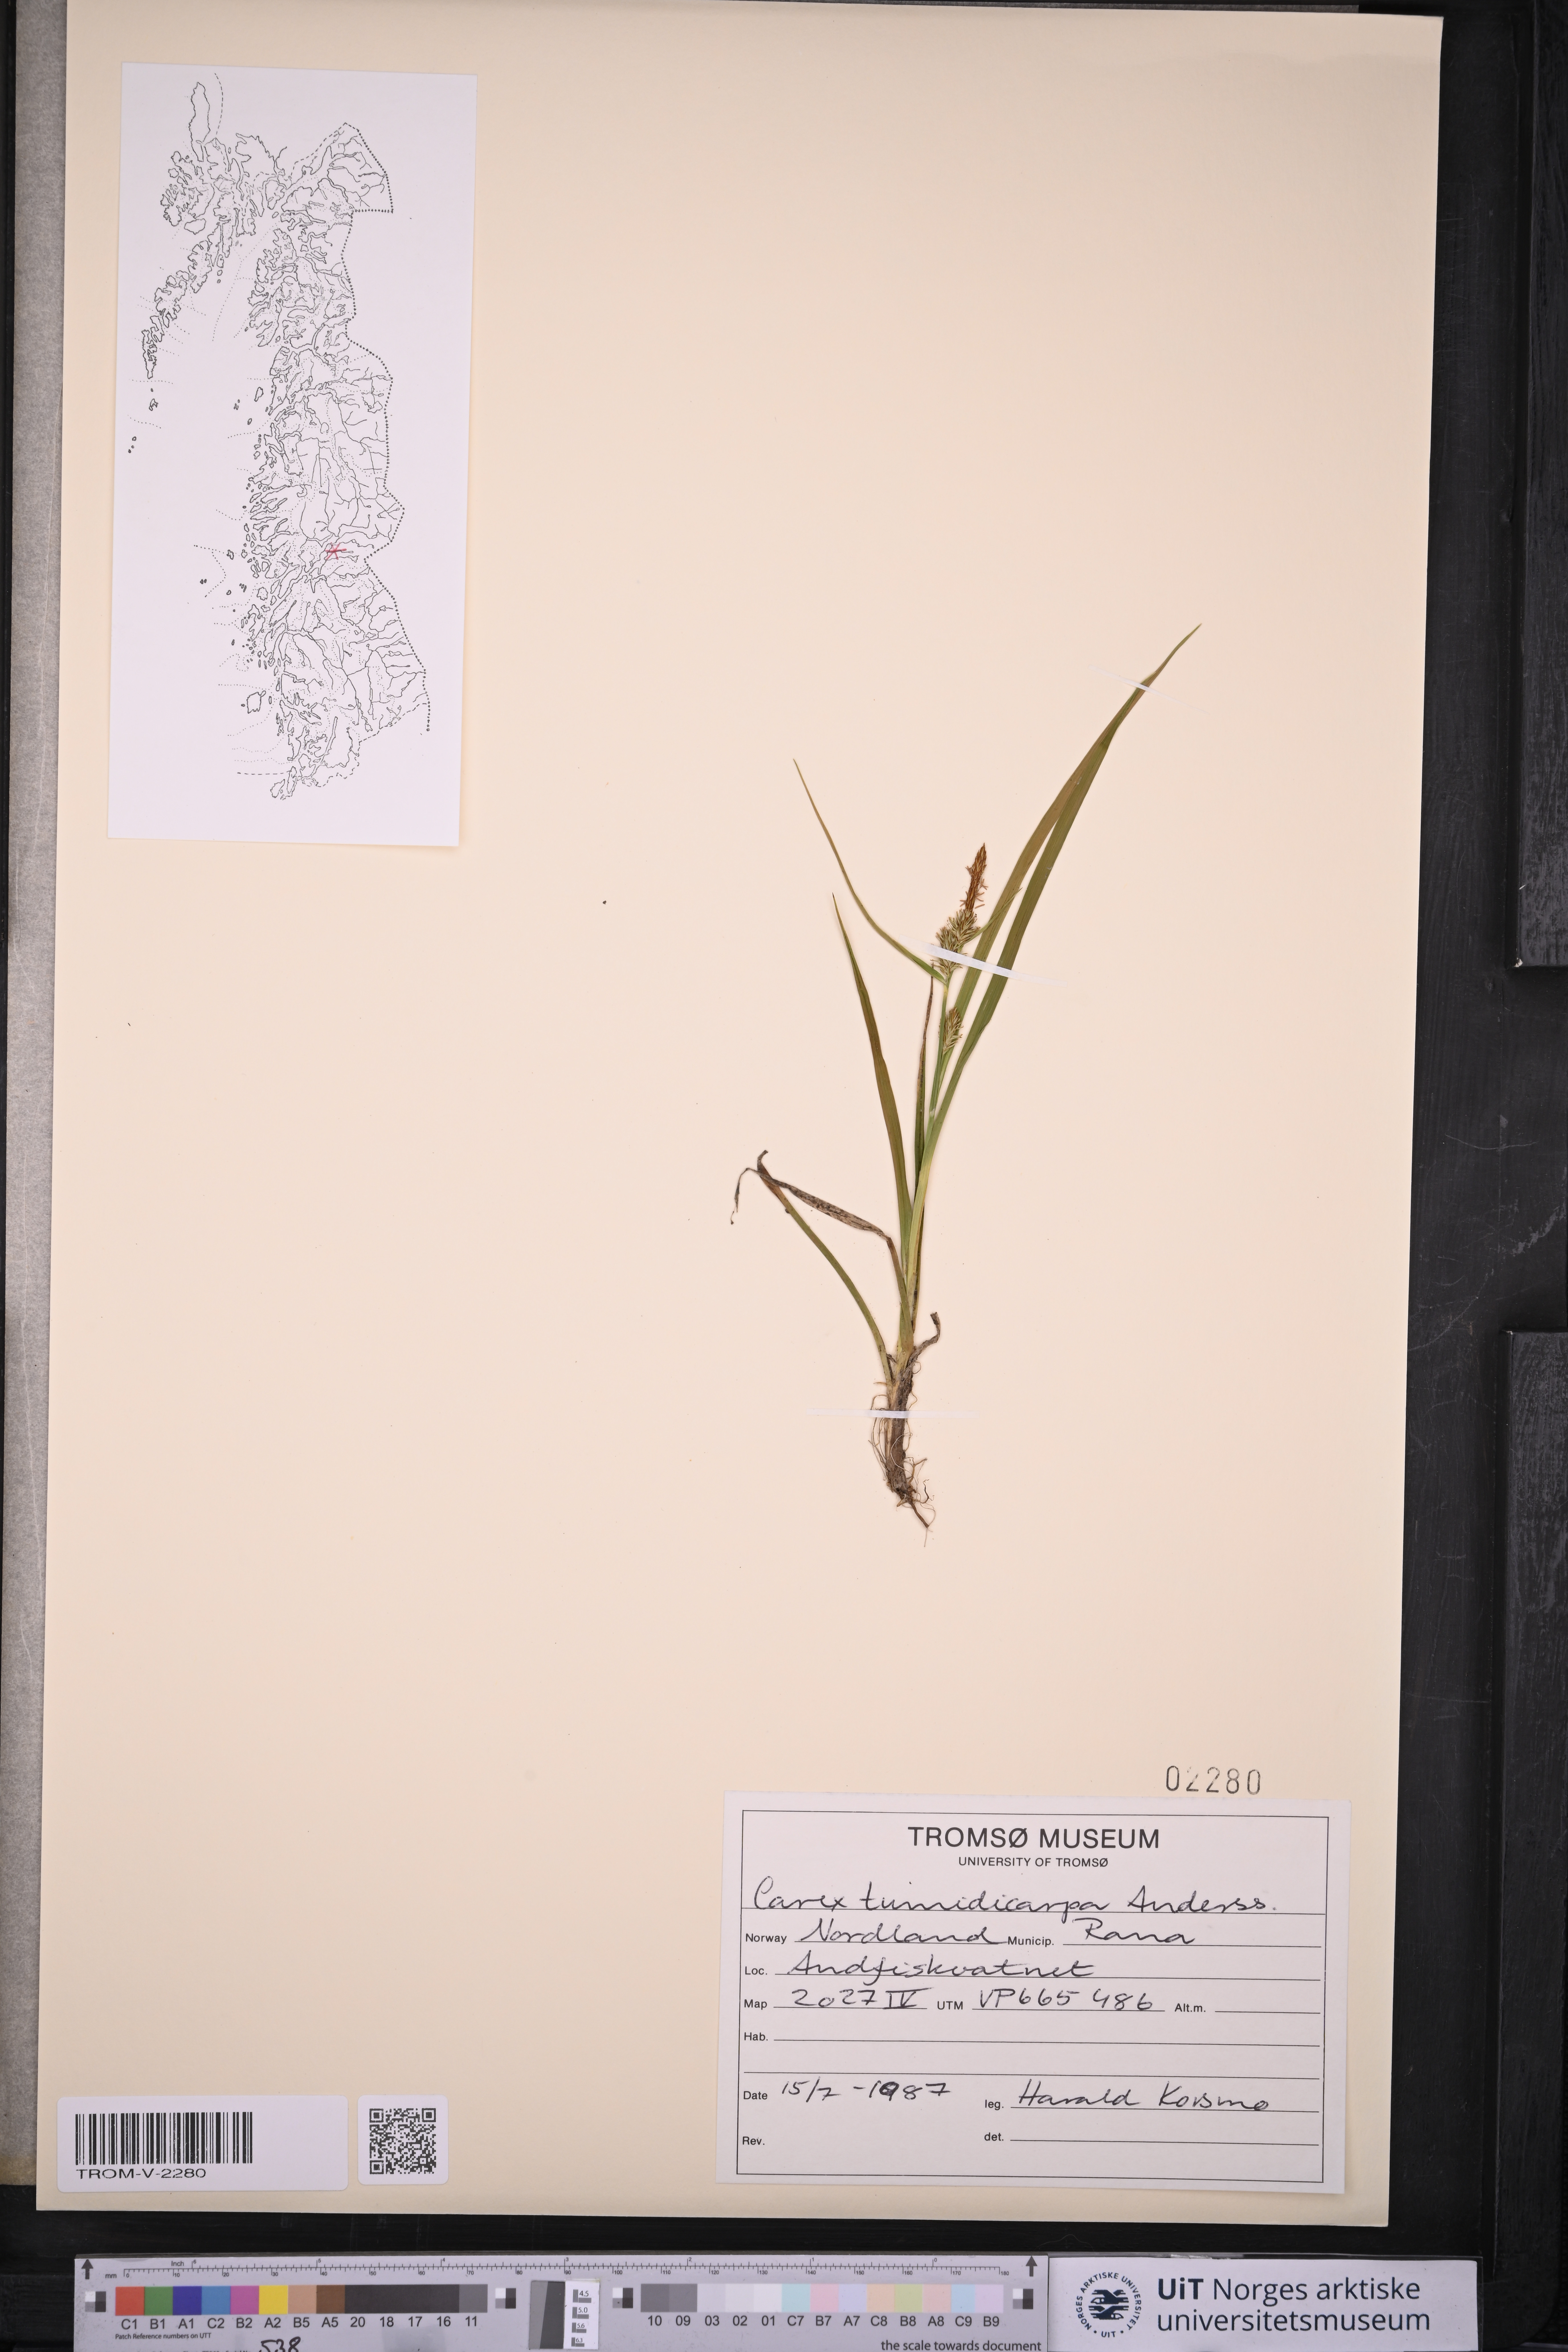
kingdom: Plantae
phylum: Tracheophyta
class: Liliopsida
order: Poales
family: Cyperaceae
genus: Carex
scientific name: Carex demissa
